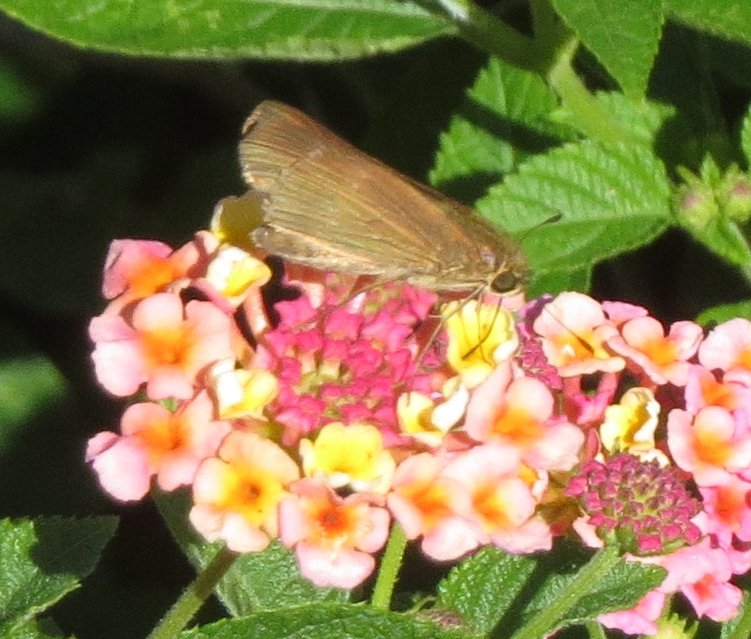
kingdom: Animalia
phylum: Arthropoda
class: Insecta
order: Lepidoptera
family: Hesperiidae
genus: Panoquina
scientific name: Panoquina ocola
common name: Ocola Skipper
